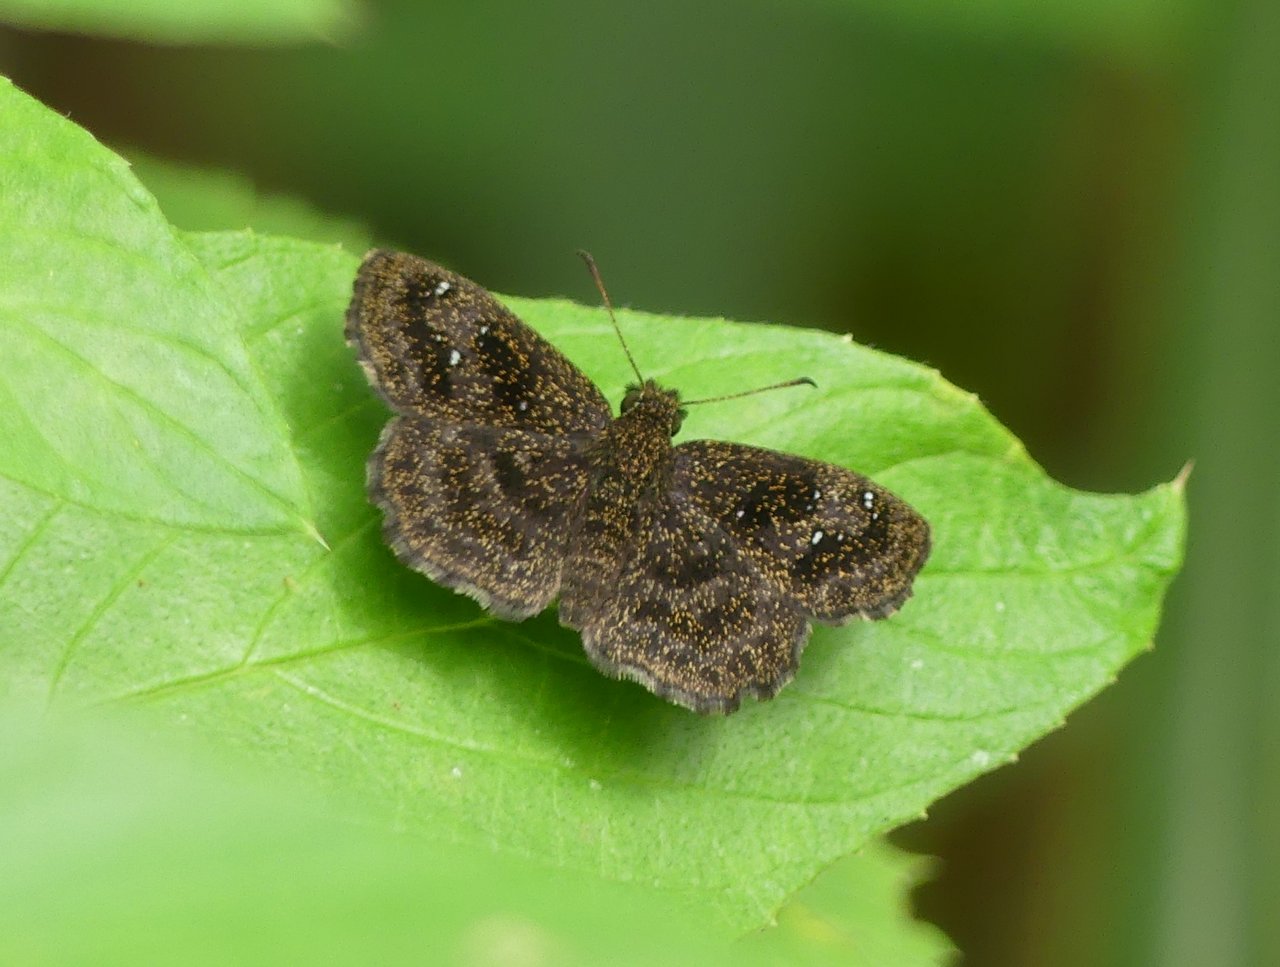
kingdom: Animalia
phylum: Arthropoda
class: Insecta
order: Lepidoptera
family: Hesperiidae
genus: Staphylus
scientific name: Staphylus ascalaphus
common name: Central American Sootywing
